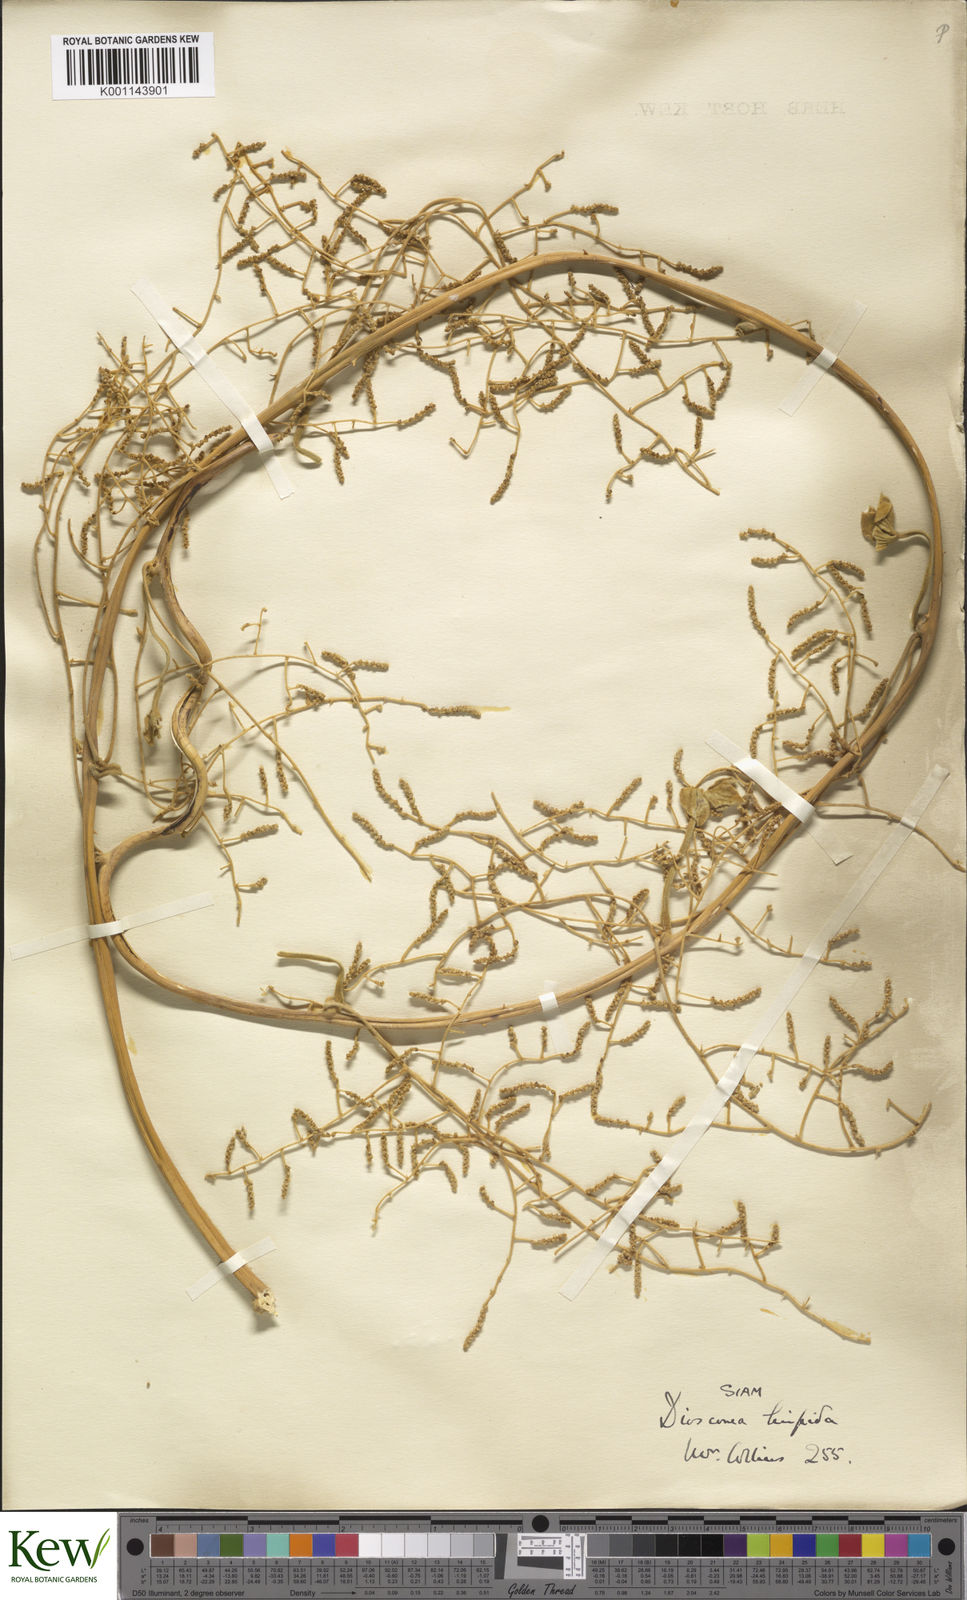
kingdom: Plantae
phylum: Tracheophyta
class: Liliopsida
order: Dioscoreales
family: Dioscoreaceae
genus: Dioscorea
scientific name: Dioscorea hispida
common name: Asiatic bitter yam
